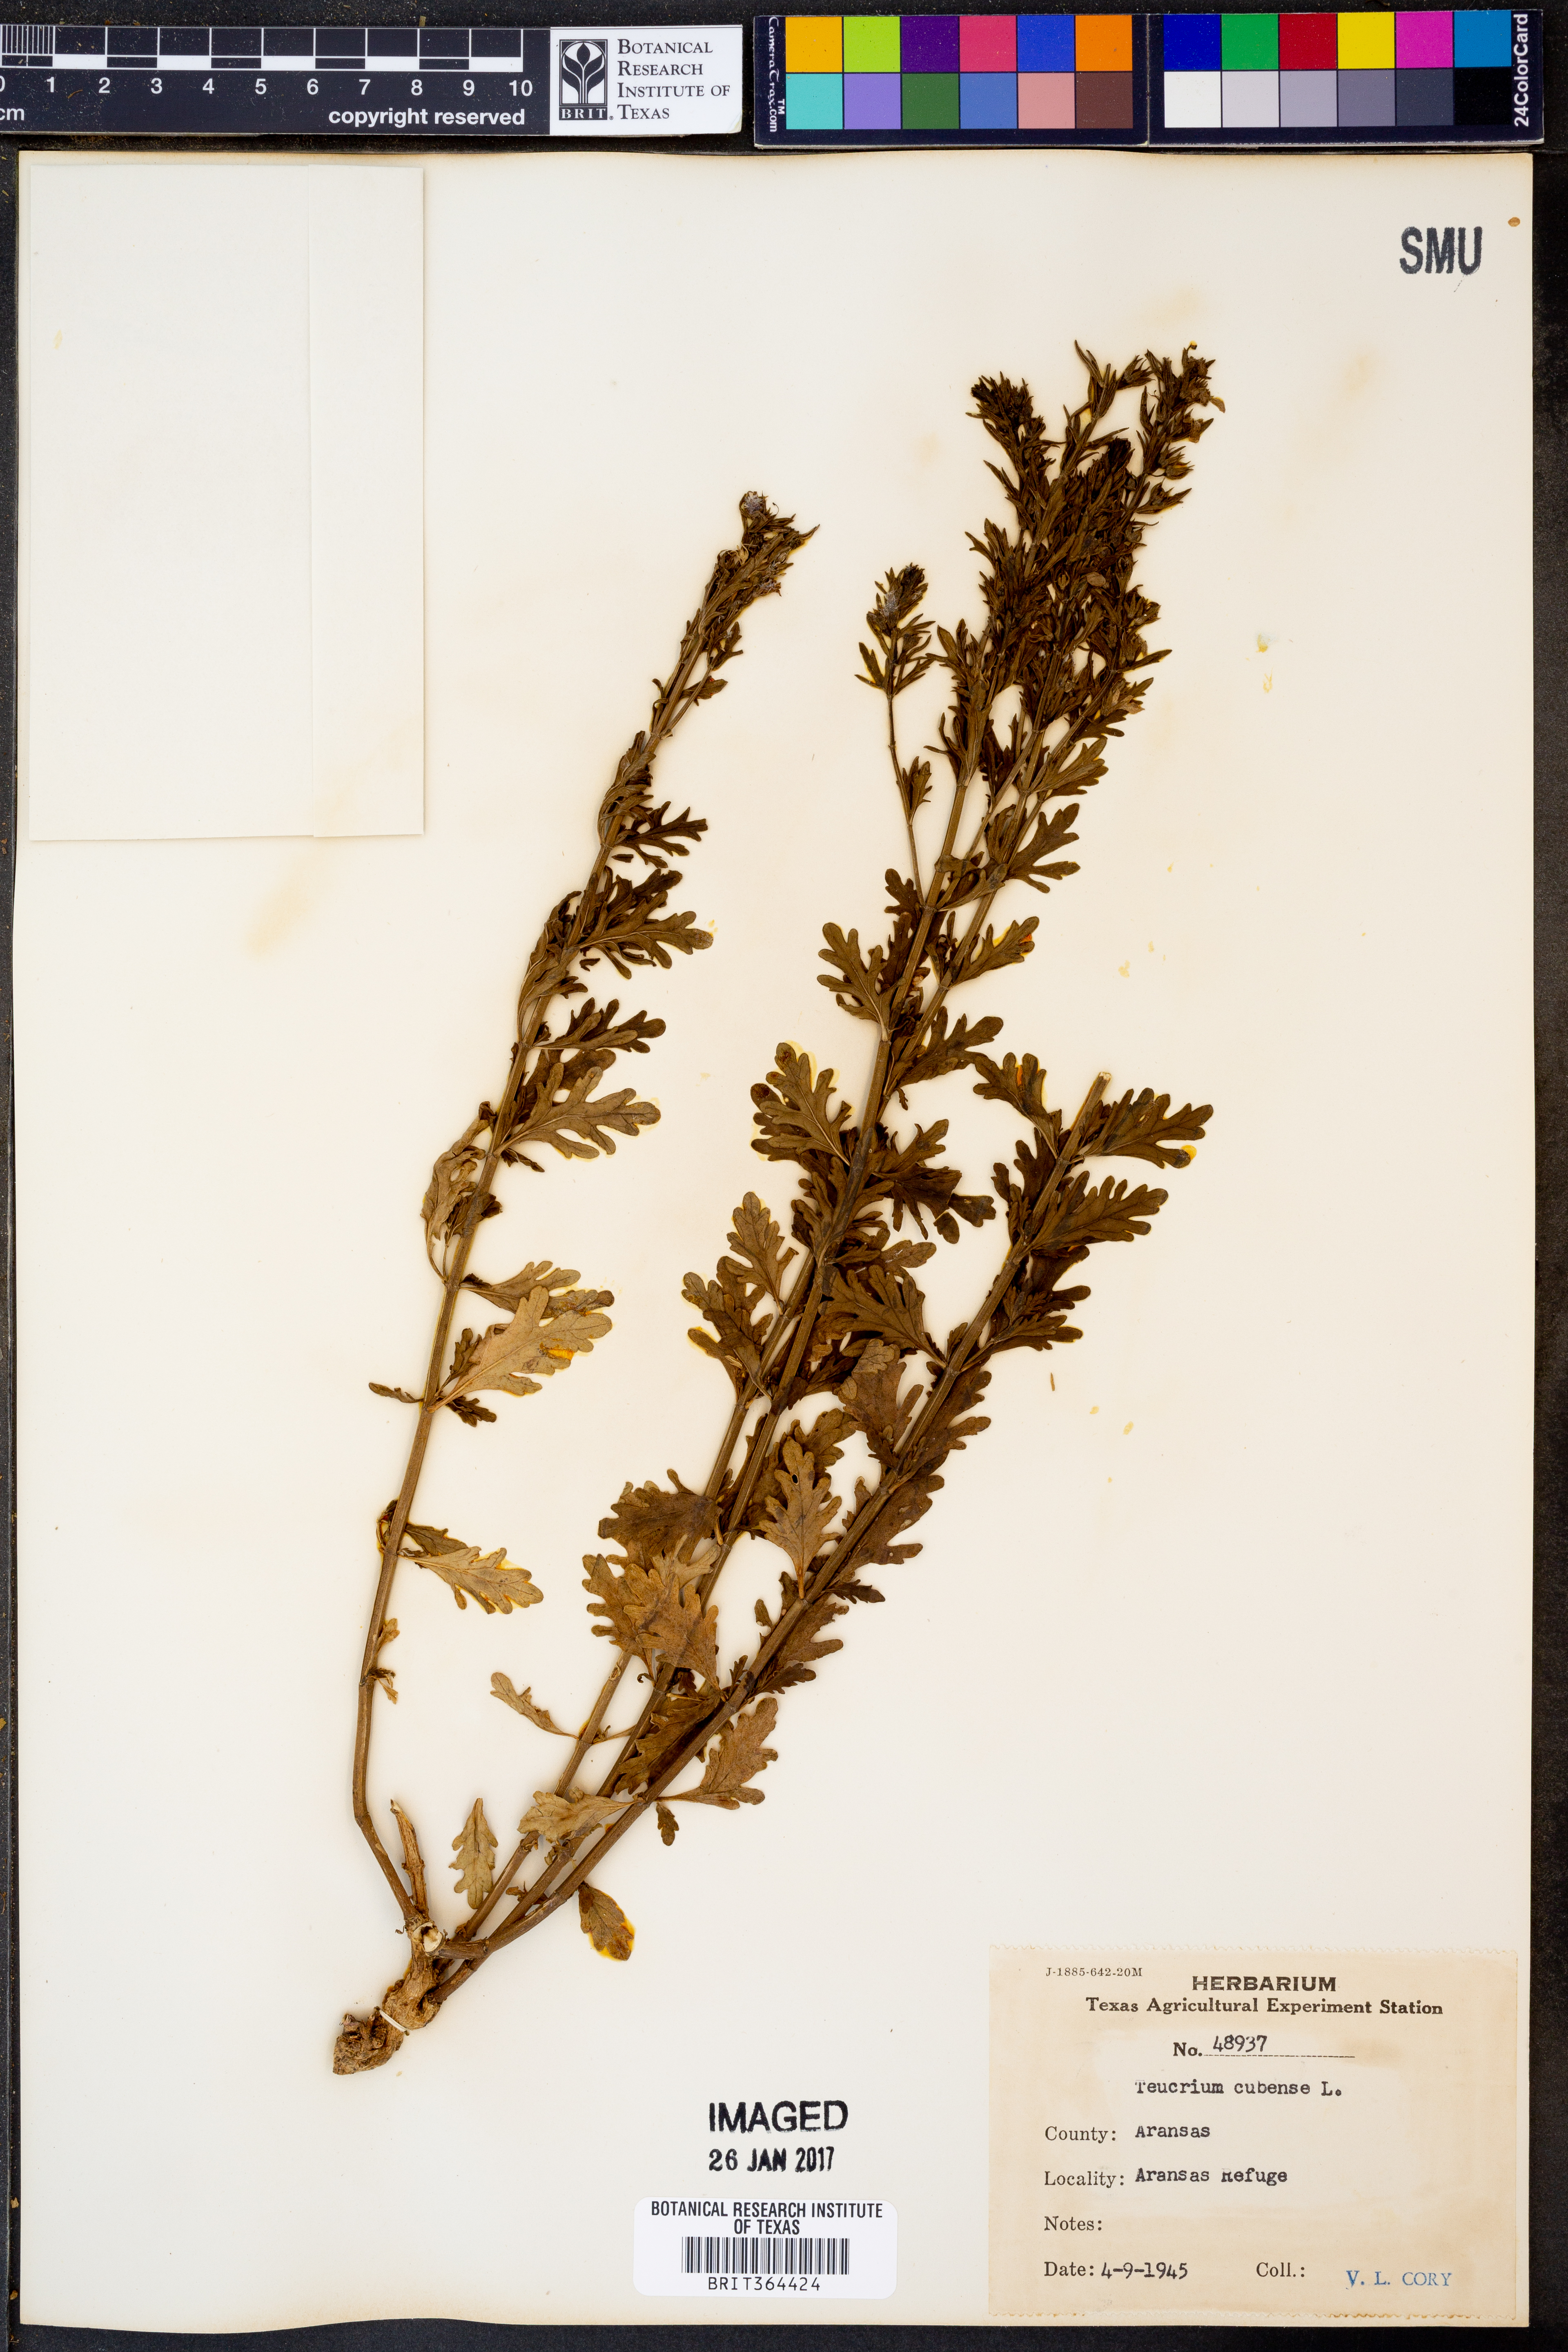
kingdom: Plantae
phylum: Tracheophyta
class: Magnoliopsida
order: Lamiales
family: Lamiaceae
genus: Teucrium
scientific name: Teucrium cubense
